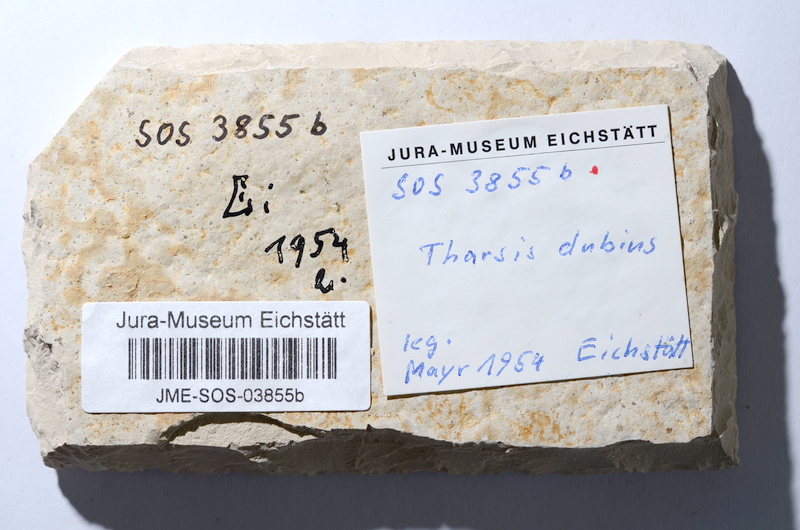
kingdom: Animalia
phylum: Chordata
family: Ascalaboidae
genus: Tharsis
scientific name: Tharsis dubius
